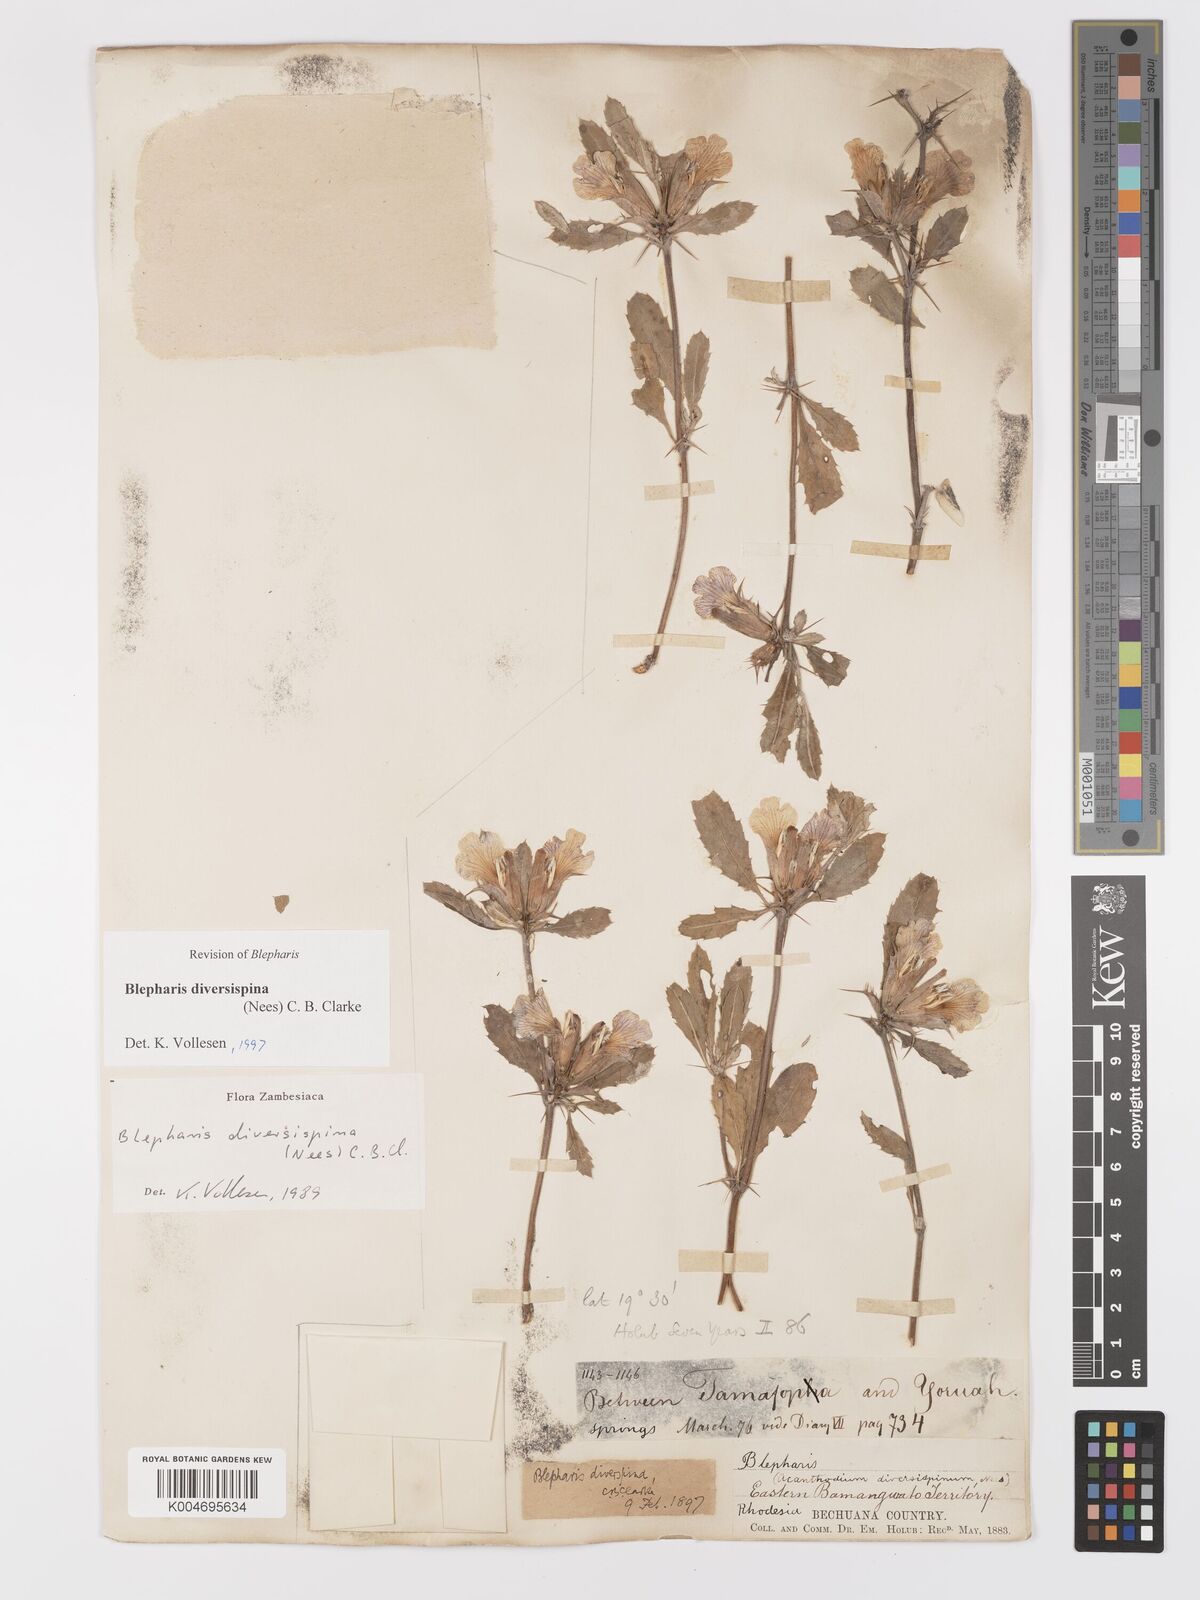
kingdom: Plantae
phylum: Tracheophyta
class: Magnoliopsida
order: Lamiales
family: Acanthaceae
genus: Blepharis
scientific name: Blepharis diversispina
